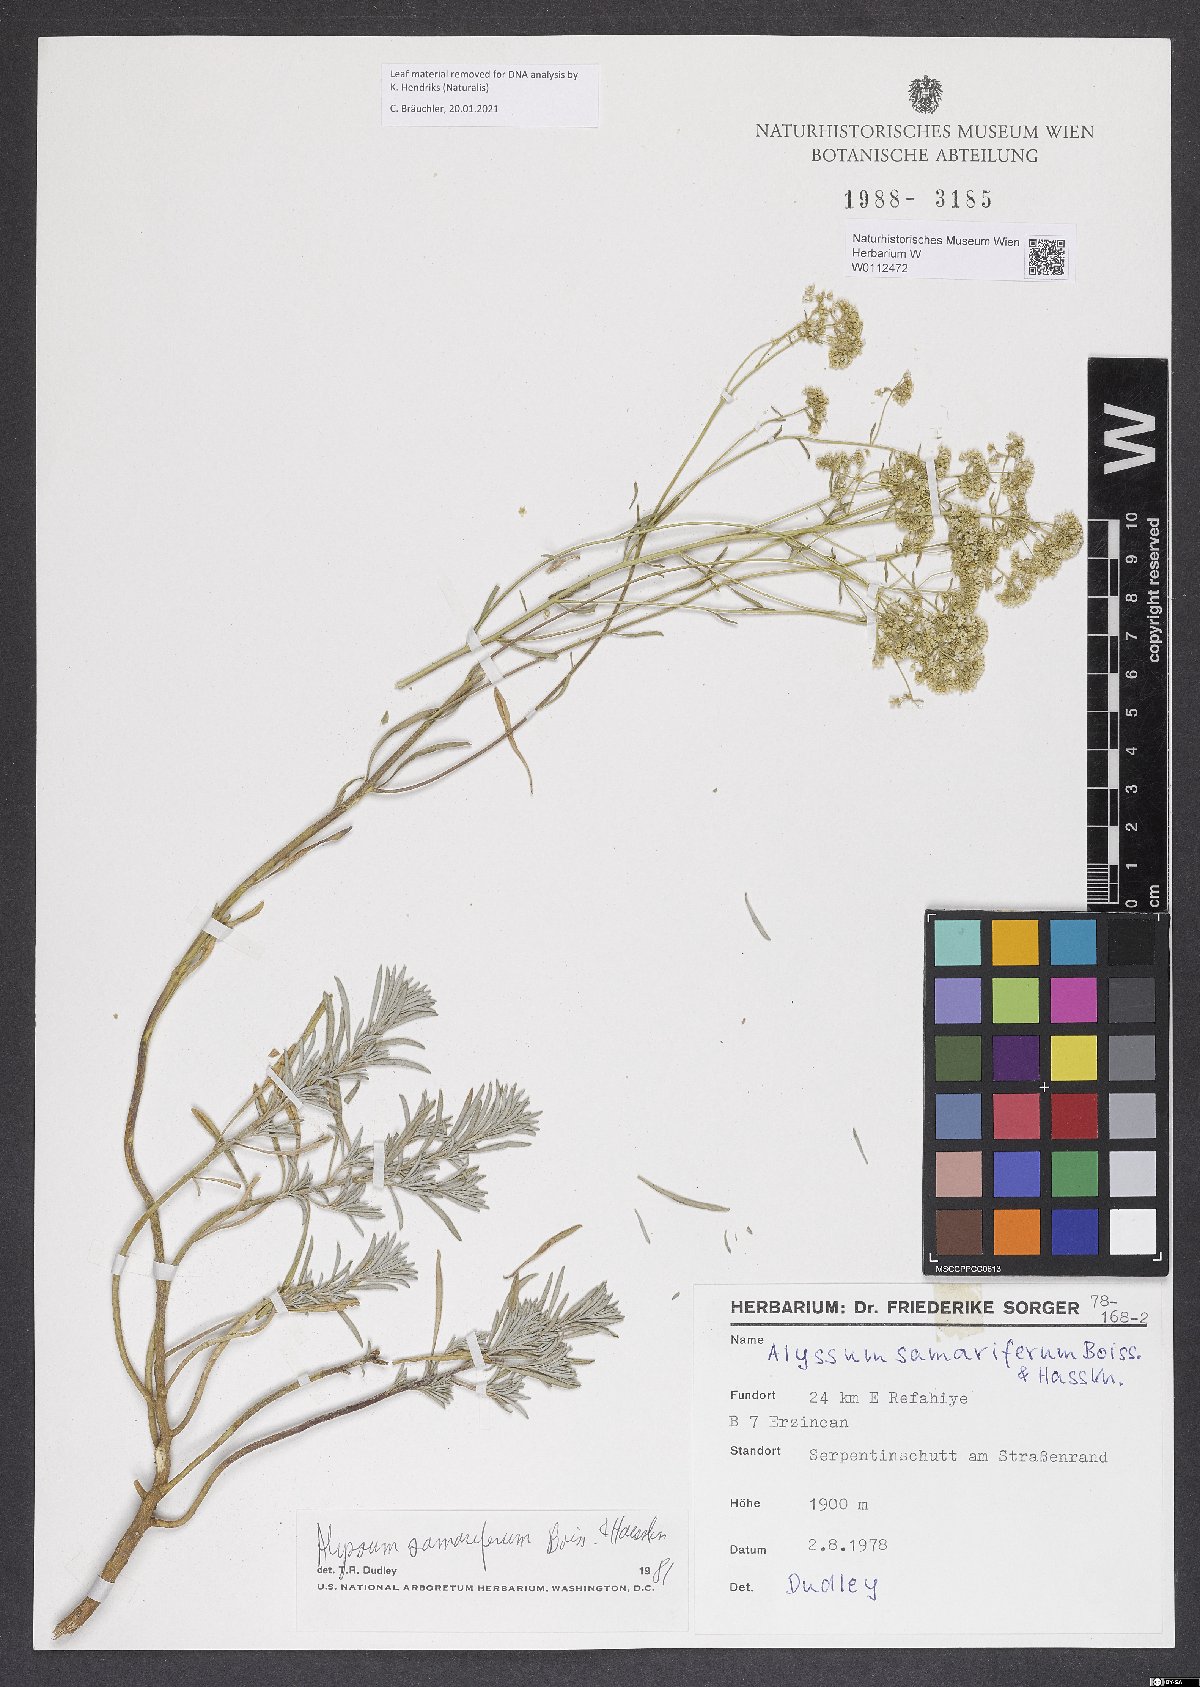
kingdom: Plantae
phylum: Tracheophyta
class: Magnoliopsida
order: Brassicales
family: Brassicaceae
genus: Odontarrhena
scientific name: Odontarrhena samarifera
